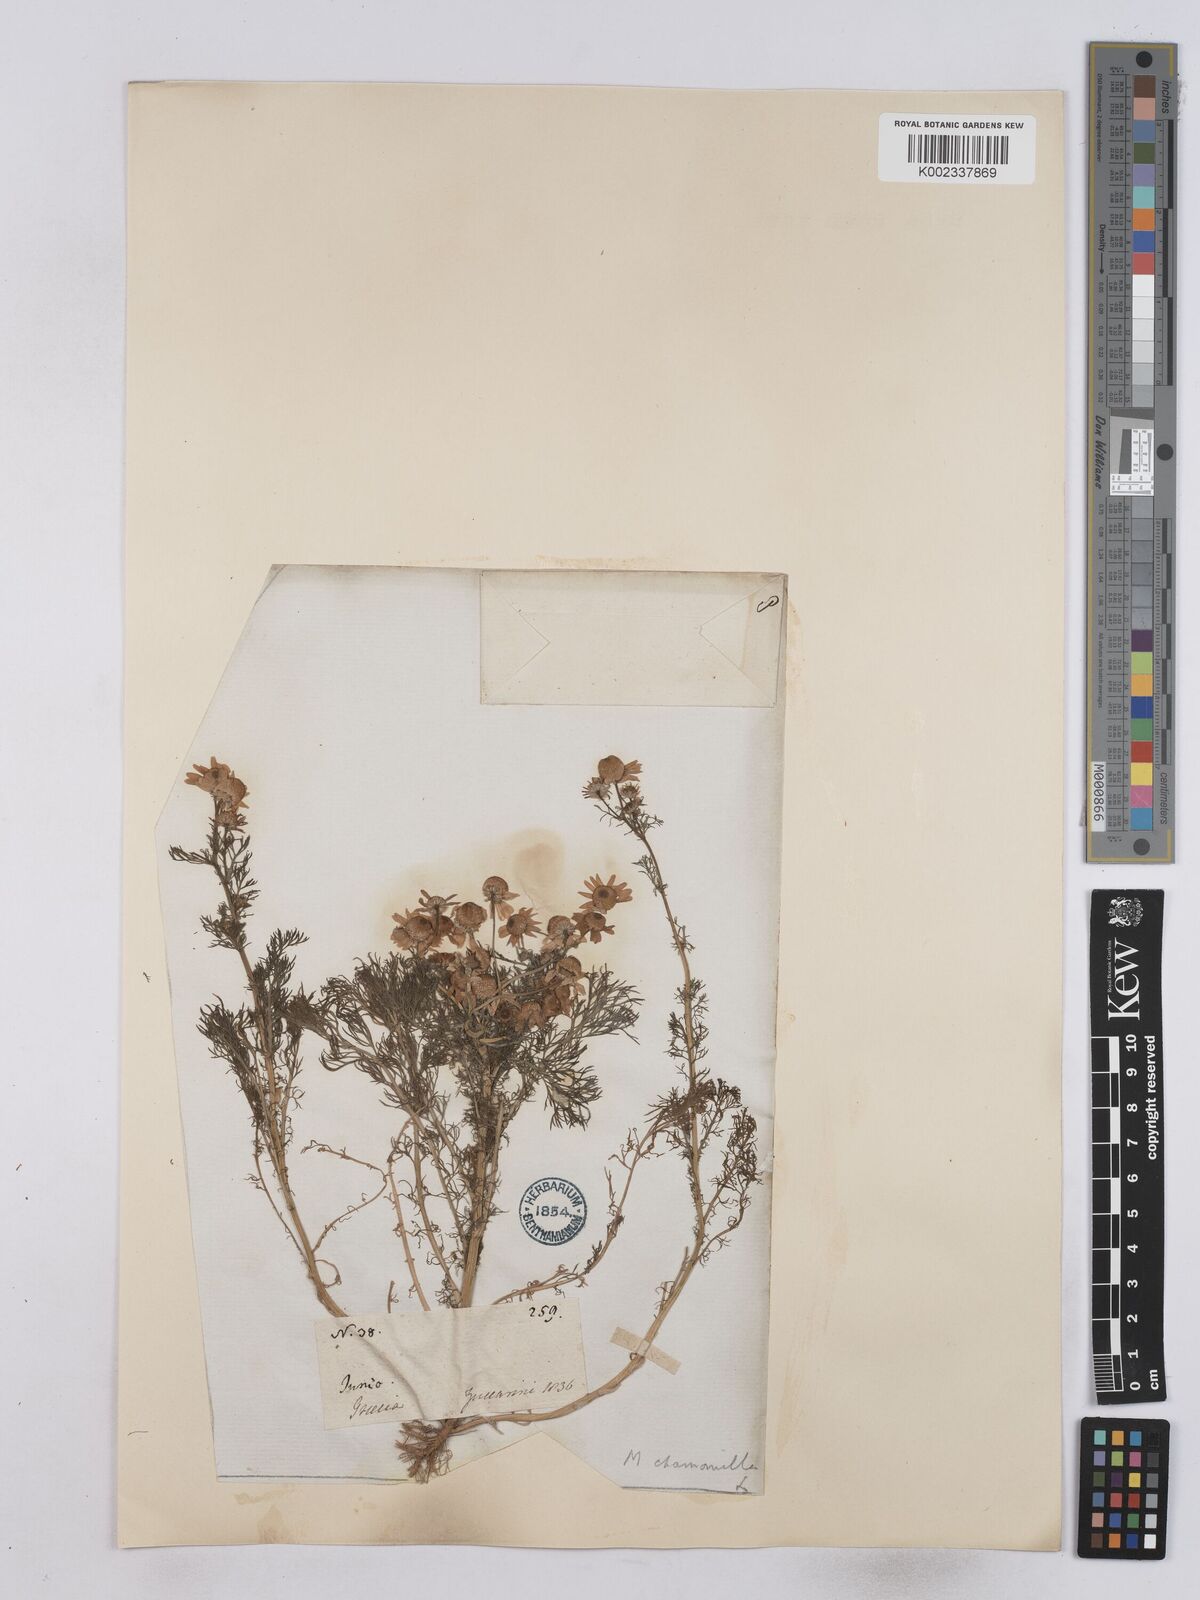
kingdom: Plantae
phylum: Tracheophyta
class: Magnoliopsida
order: Asterales
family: Asteraceae
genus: Matricaria
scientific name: Matricaria chamomilla
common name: Scented mayweed
